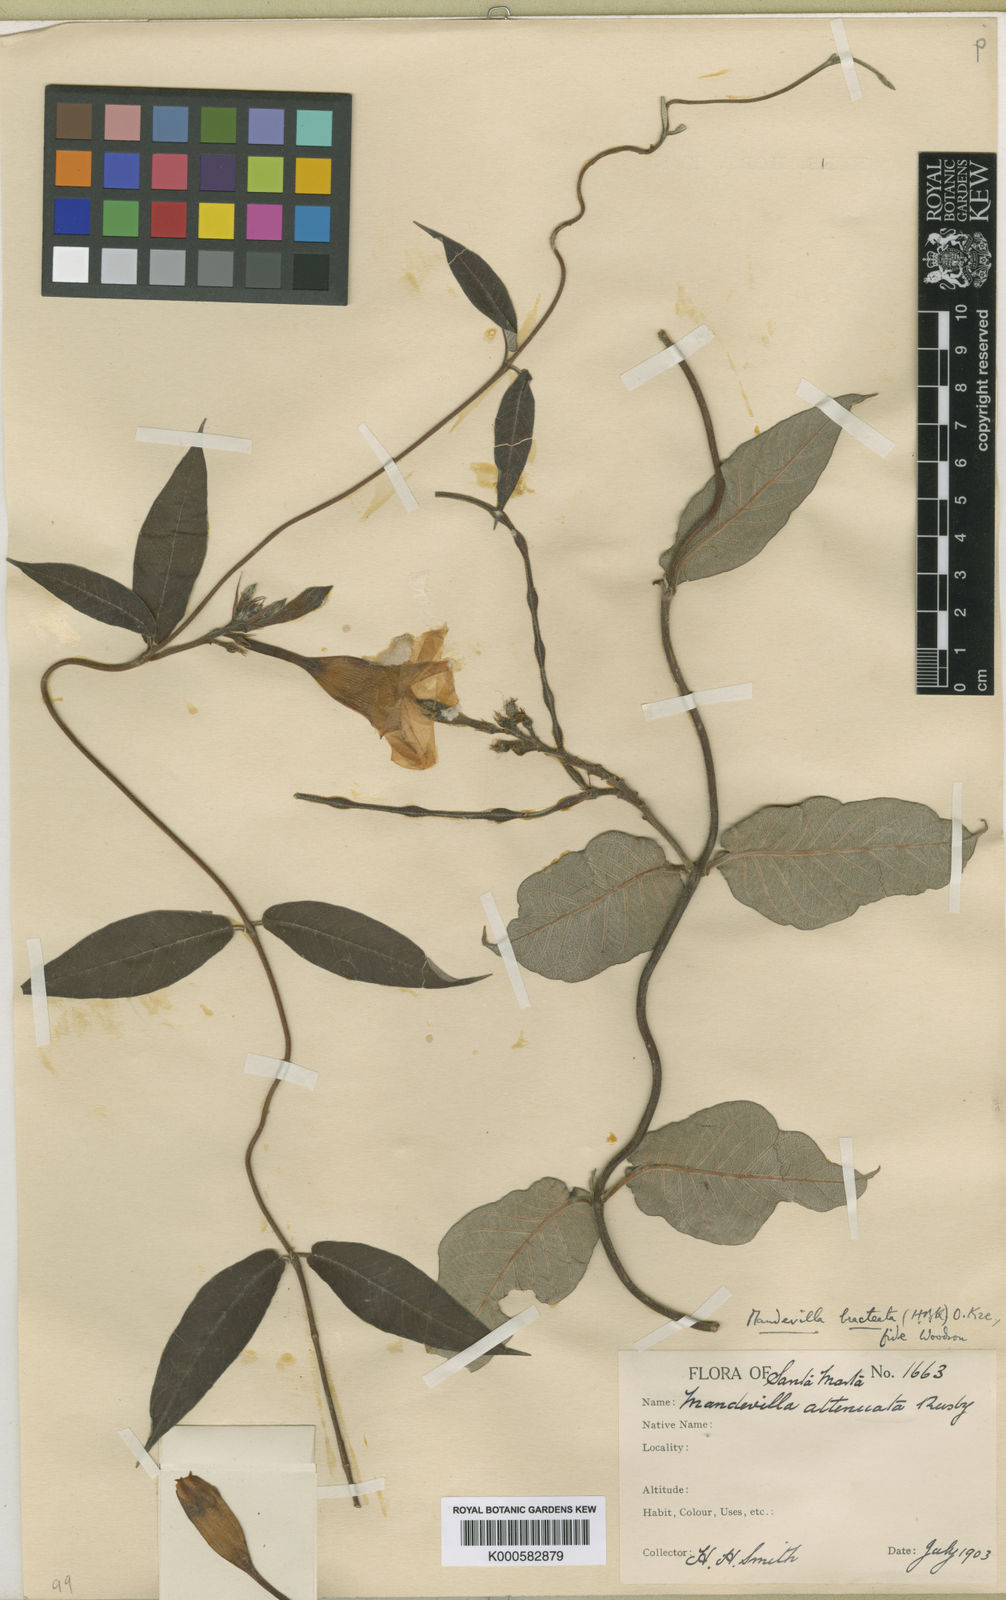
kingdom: Plantae
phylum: Tracheophyta
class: Magnoliopsida
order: Gentianales
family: Apocynaceae
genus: Mandevilla
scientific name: Mandevilla bracteata
